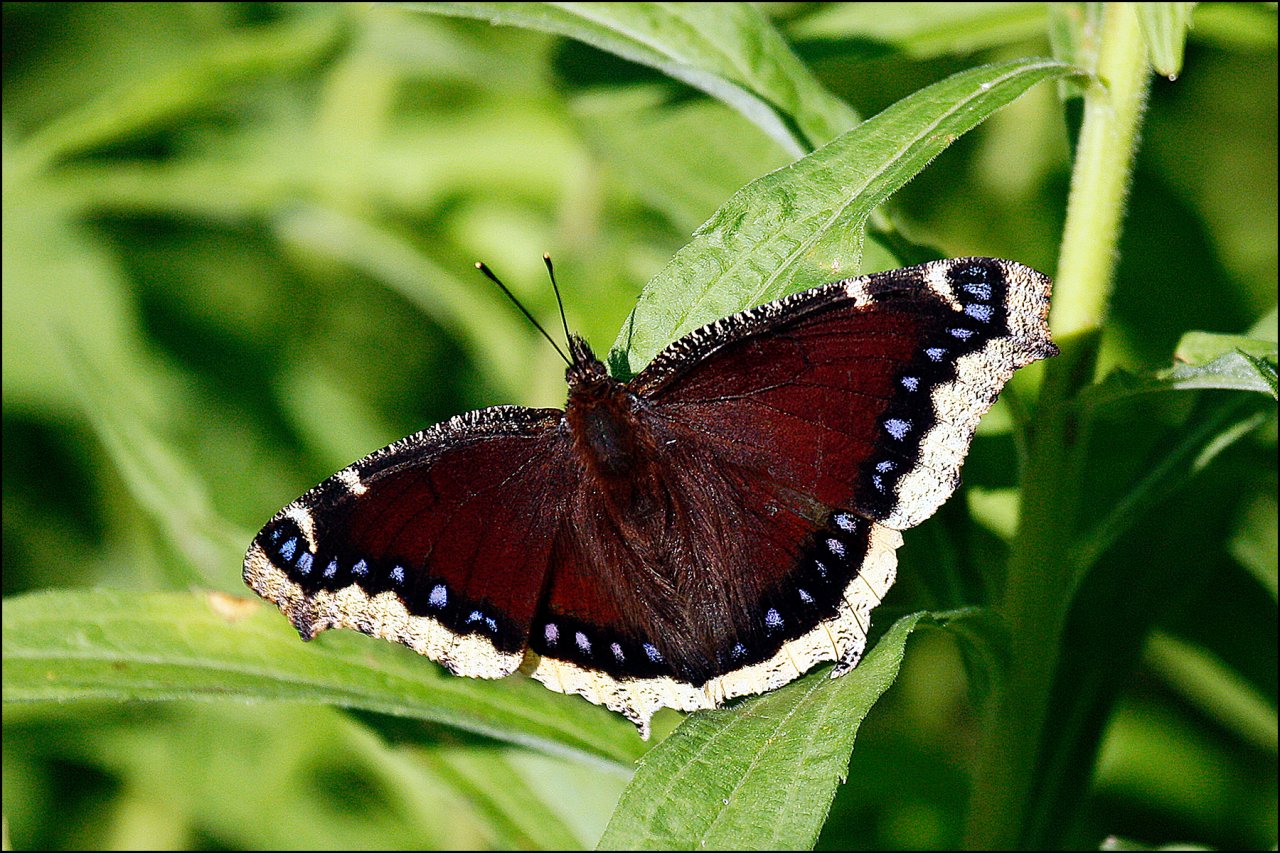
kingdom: Animalia
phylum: Arthropoda
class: Insecta
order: Lepidoptera
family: Nymphalidae
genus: Nymphalis
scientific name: Nymphalis antiopa
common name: Mourning Cloak
